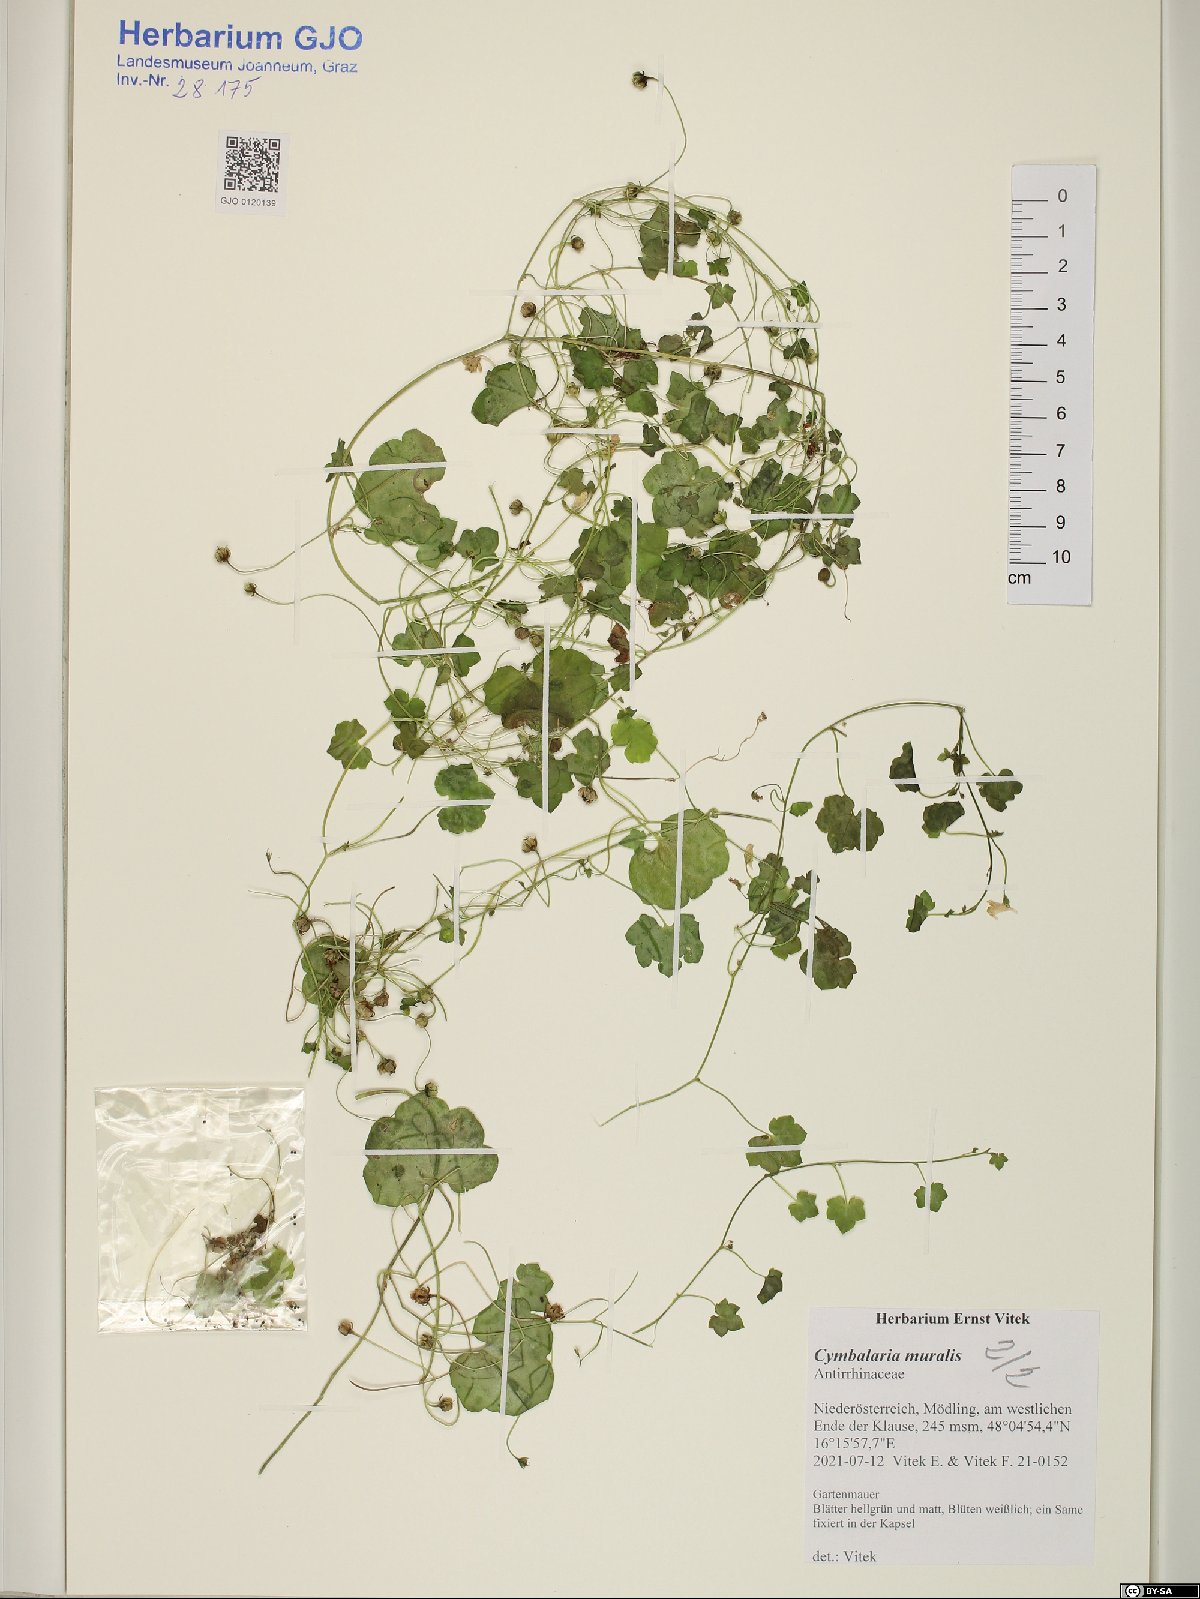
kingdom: Plantae
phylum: Tracheophyta
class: Magnoliopsida
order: Lamiales
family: Plantaginaceae
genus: Cymbalaria
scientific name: Cymbalaria muralis
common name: Ivy-leaved toadflax
